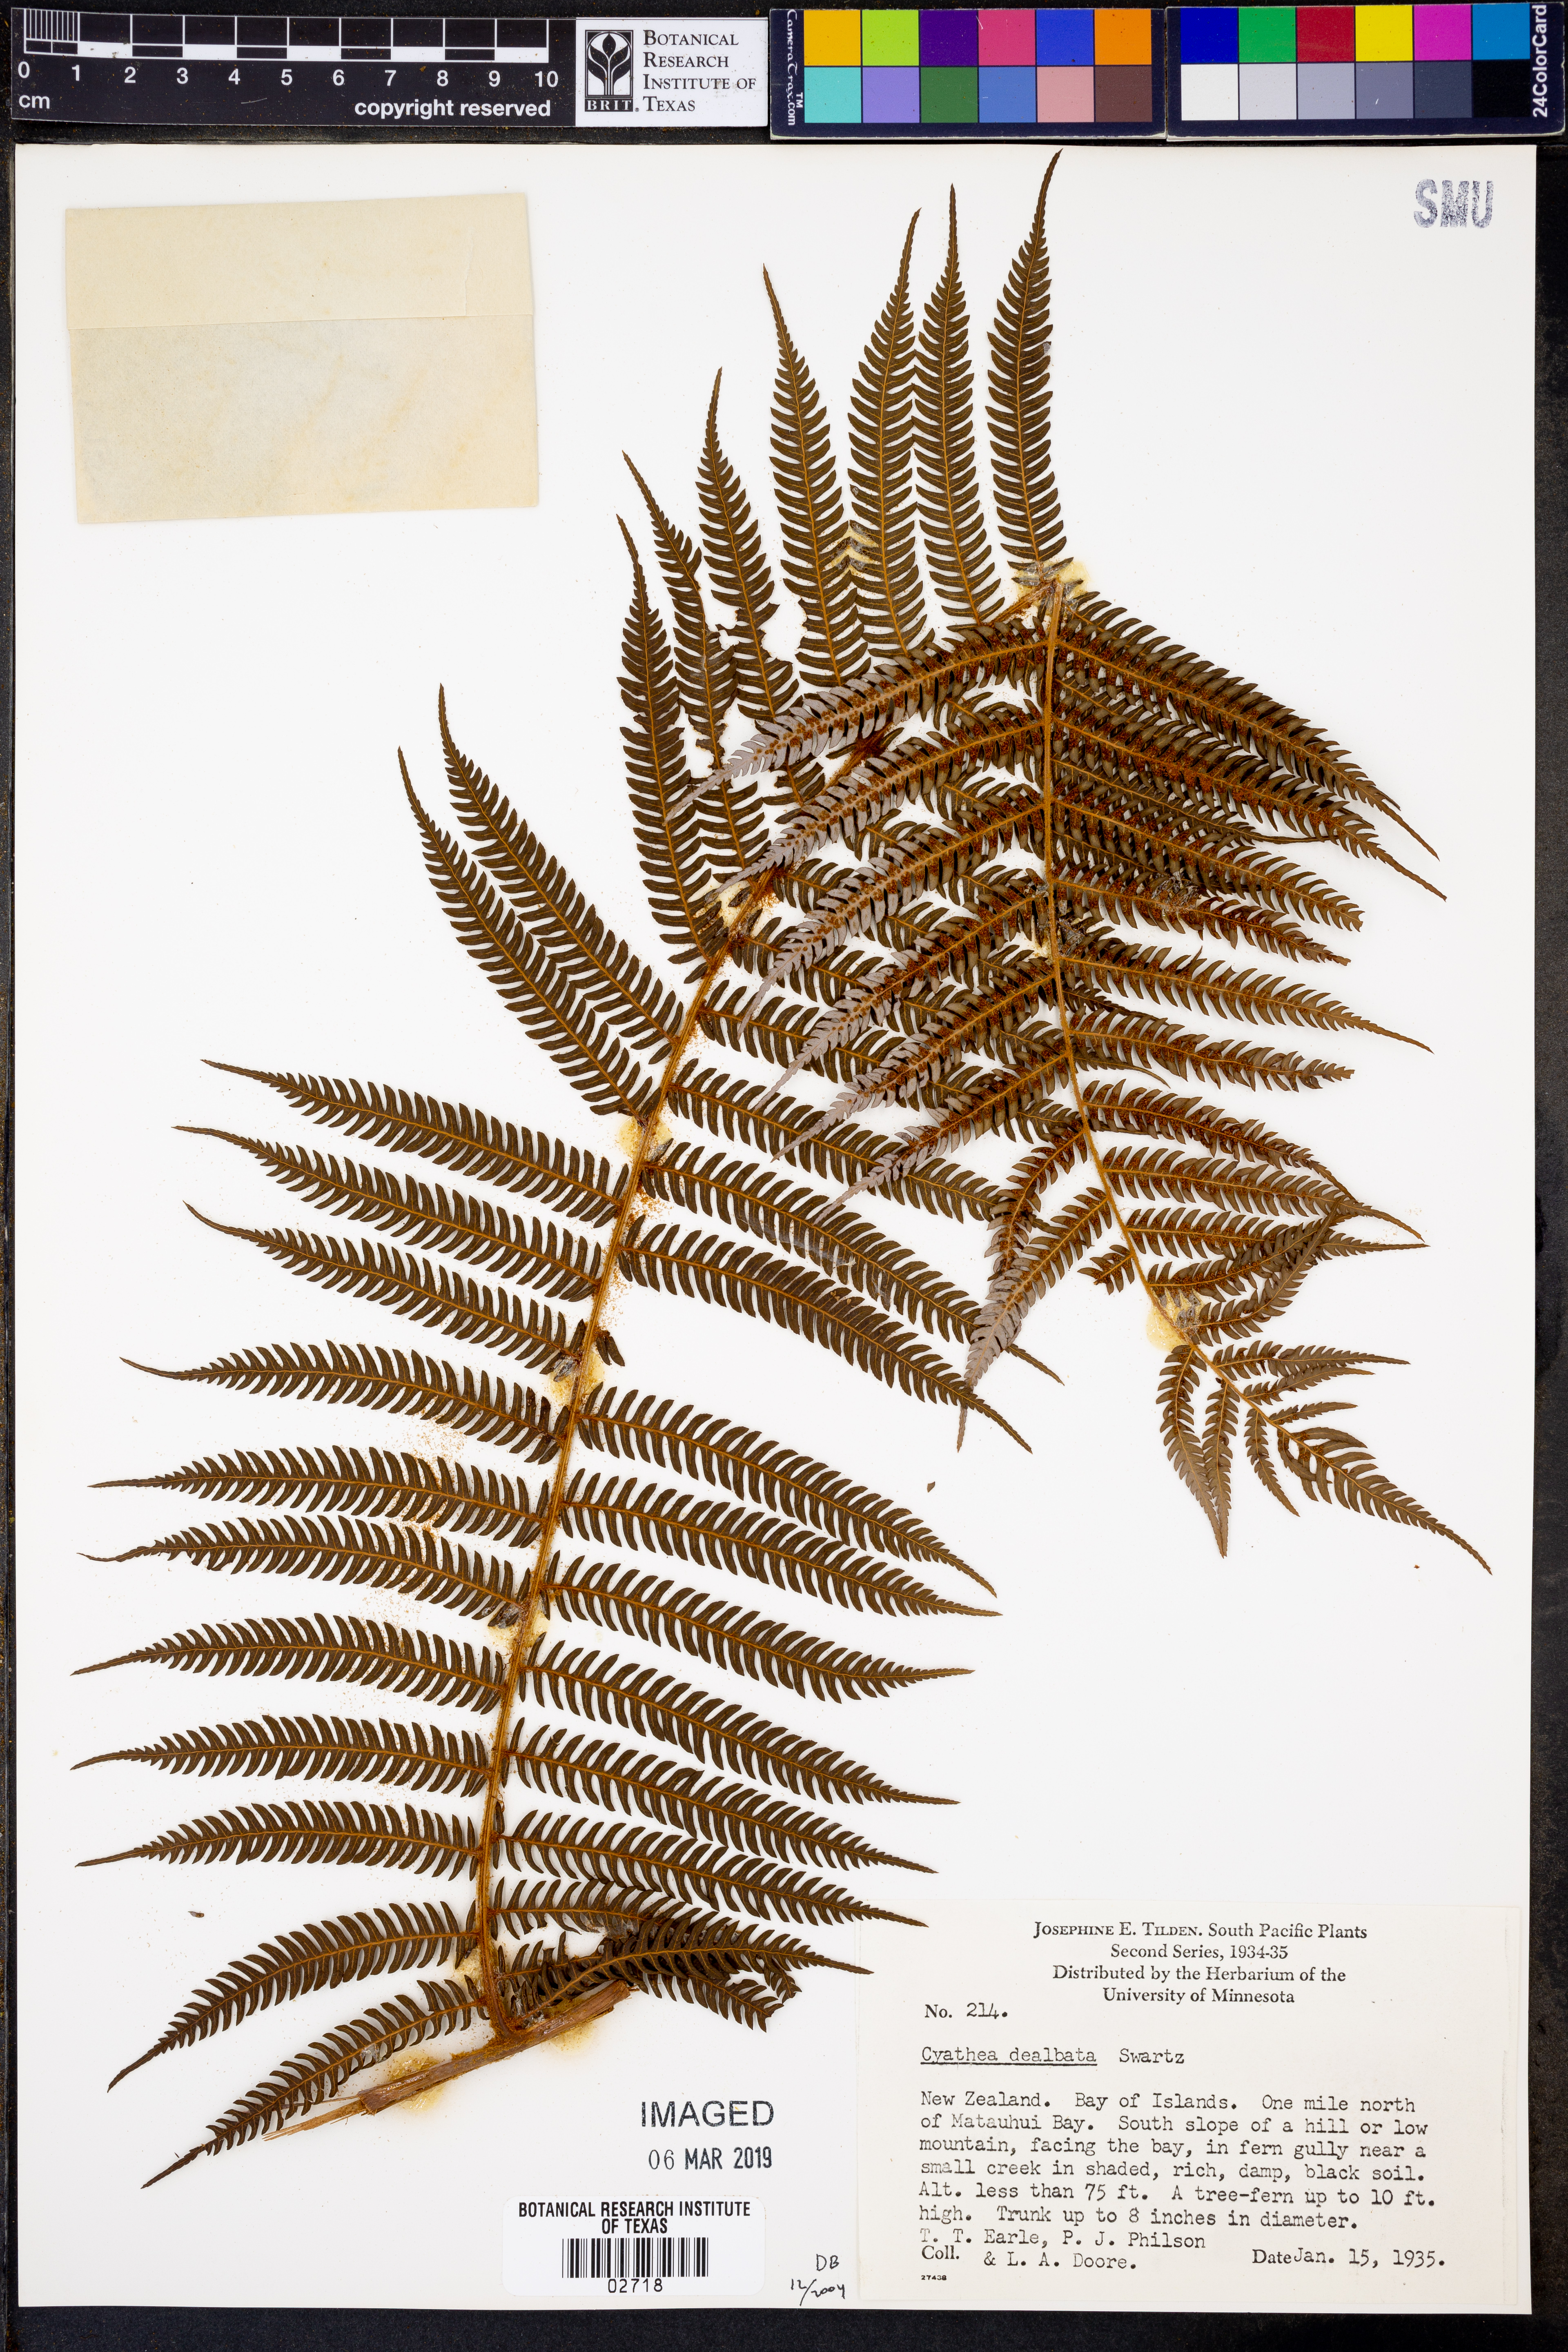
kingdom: Plantae
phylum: Tracheophyta
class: Polypodiopsida
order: Cyatheales
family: Cyatheaceae
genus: Alsophila
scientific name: Alsophila dealbata
